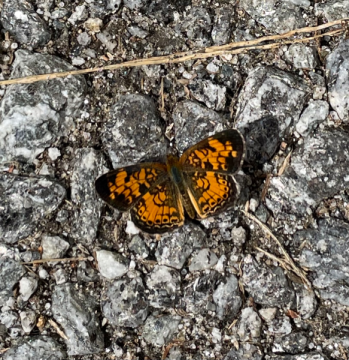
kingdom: Animalia
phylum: Arthropoda
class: Insecta
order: Lepidoptera
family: Nymphalidae
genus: Phyciodes
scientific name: Phyciodes tharos
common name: Pearl Crescent
